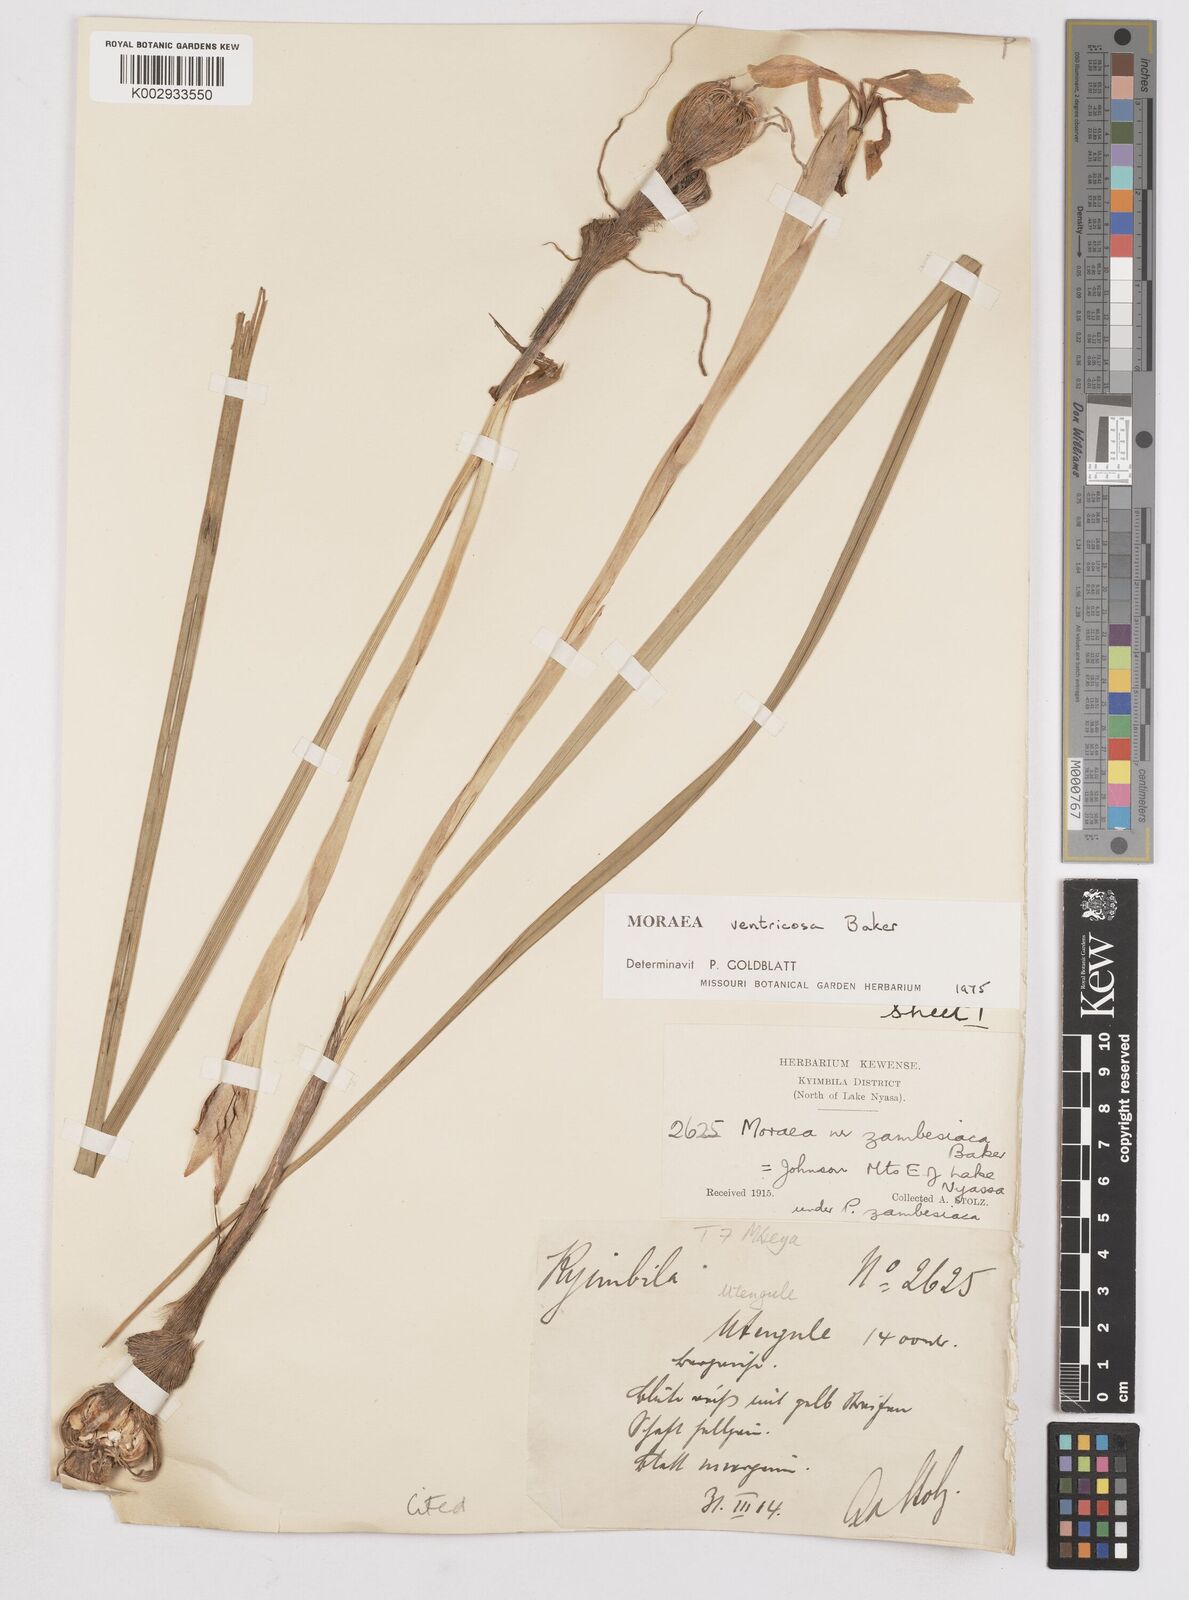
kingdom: Plantae
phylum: Tracheophyta
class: Liliopsida
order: Asparagales
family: Iridaceae
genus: Moraea
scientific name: Moraea ventricosa
